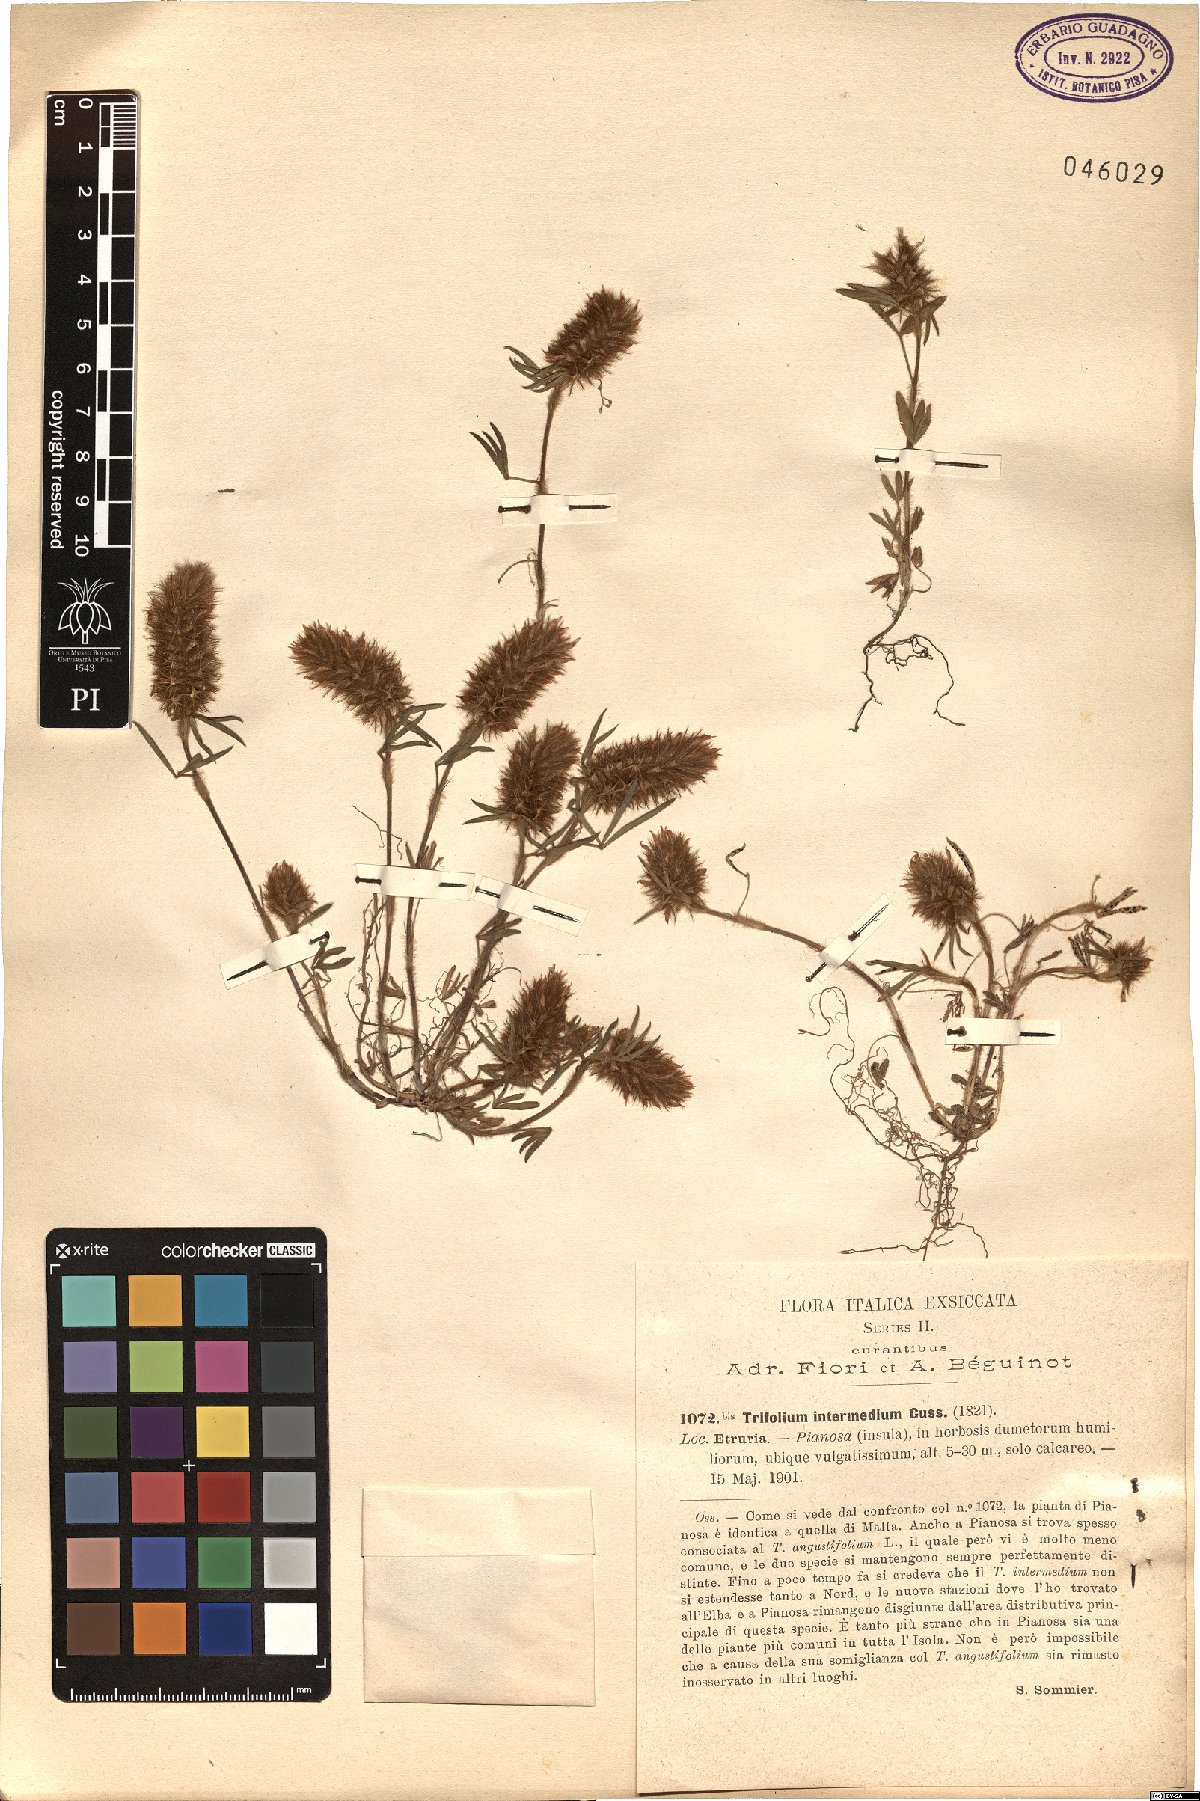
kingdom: Plantae
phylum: Tracheophyta
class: Magnoliopsida
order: Fabales
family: Fabaceae
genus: Trifolium
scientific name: Trifolium infamia-ponertii
